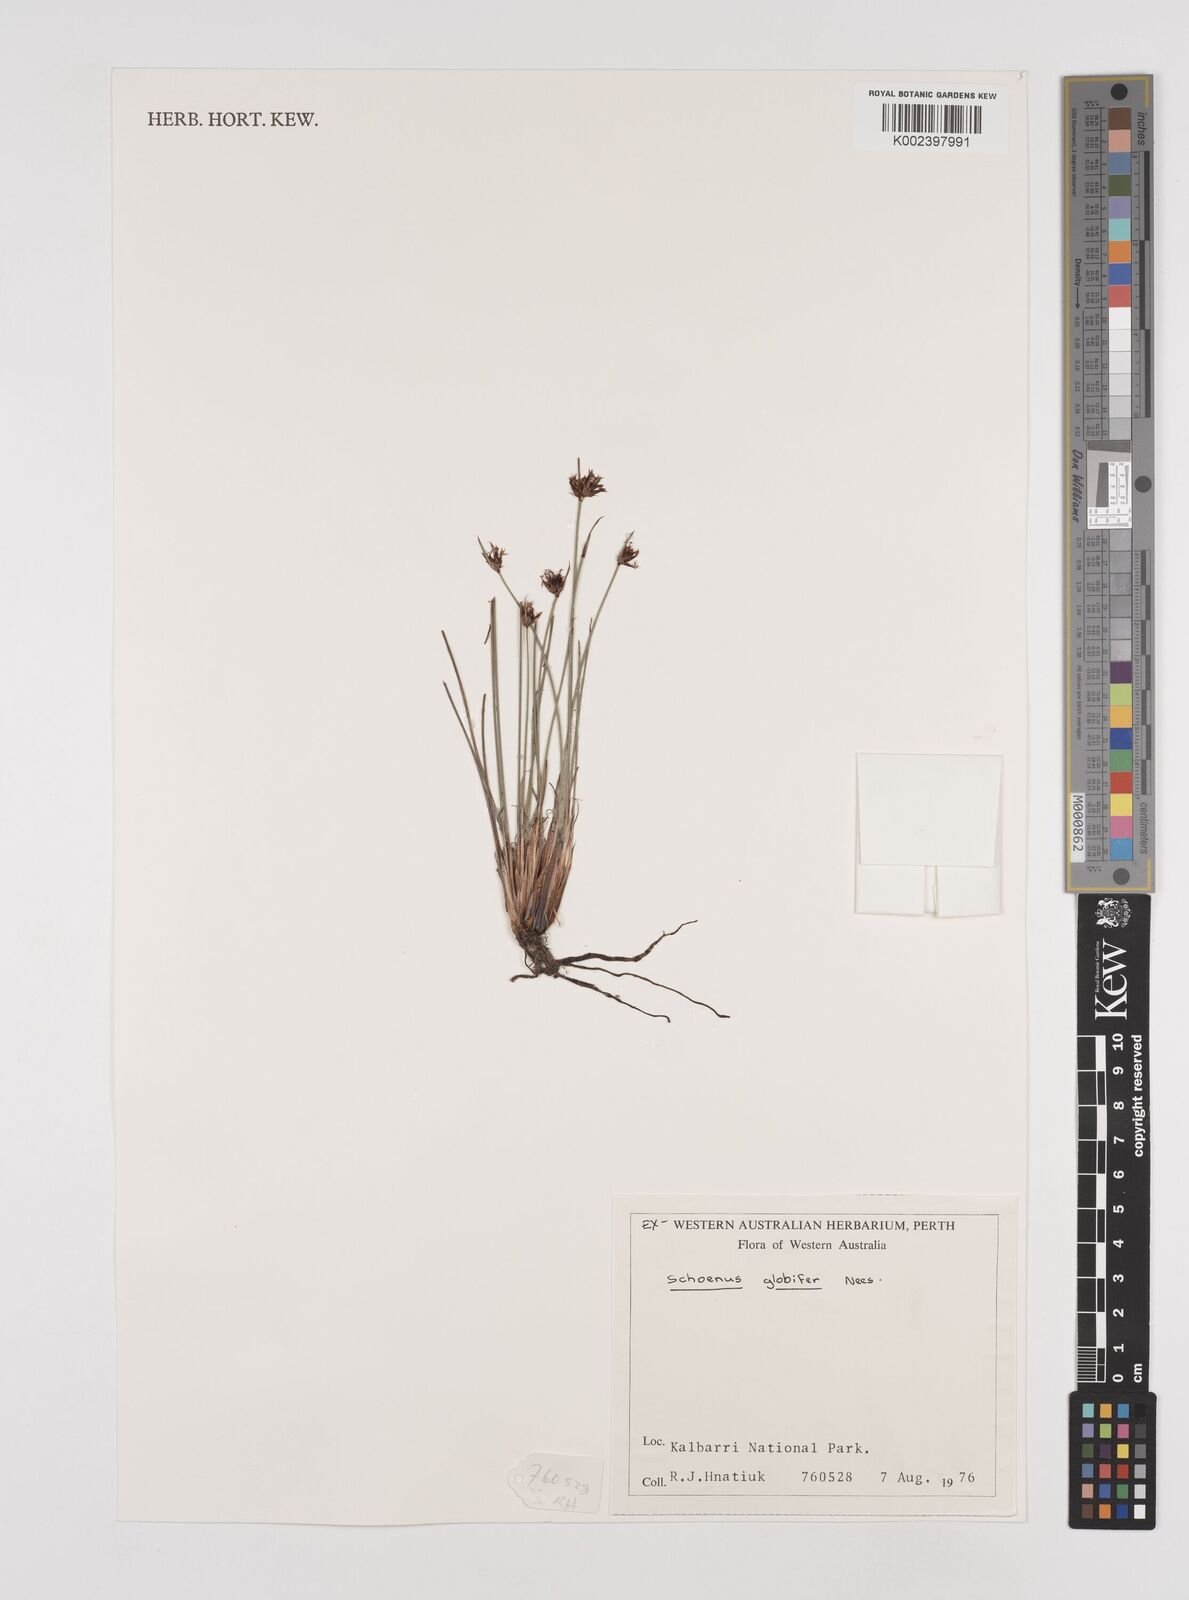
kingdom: Plantae
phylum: Tracheophyta
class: Liliopsida
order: Poales
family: Cyperaceae
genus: Schoenus
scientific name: Schoenus globifer
